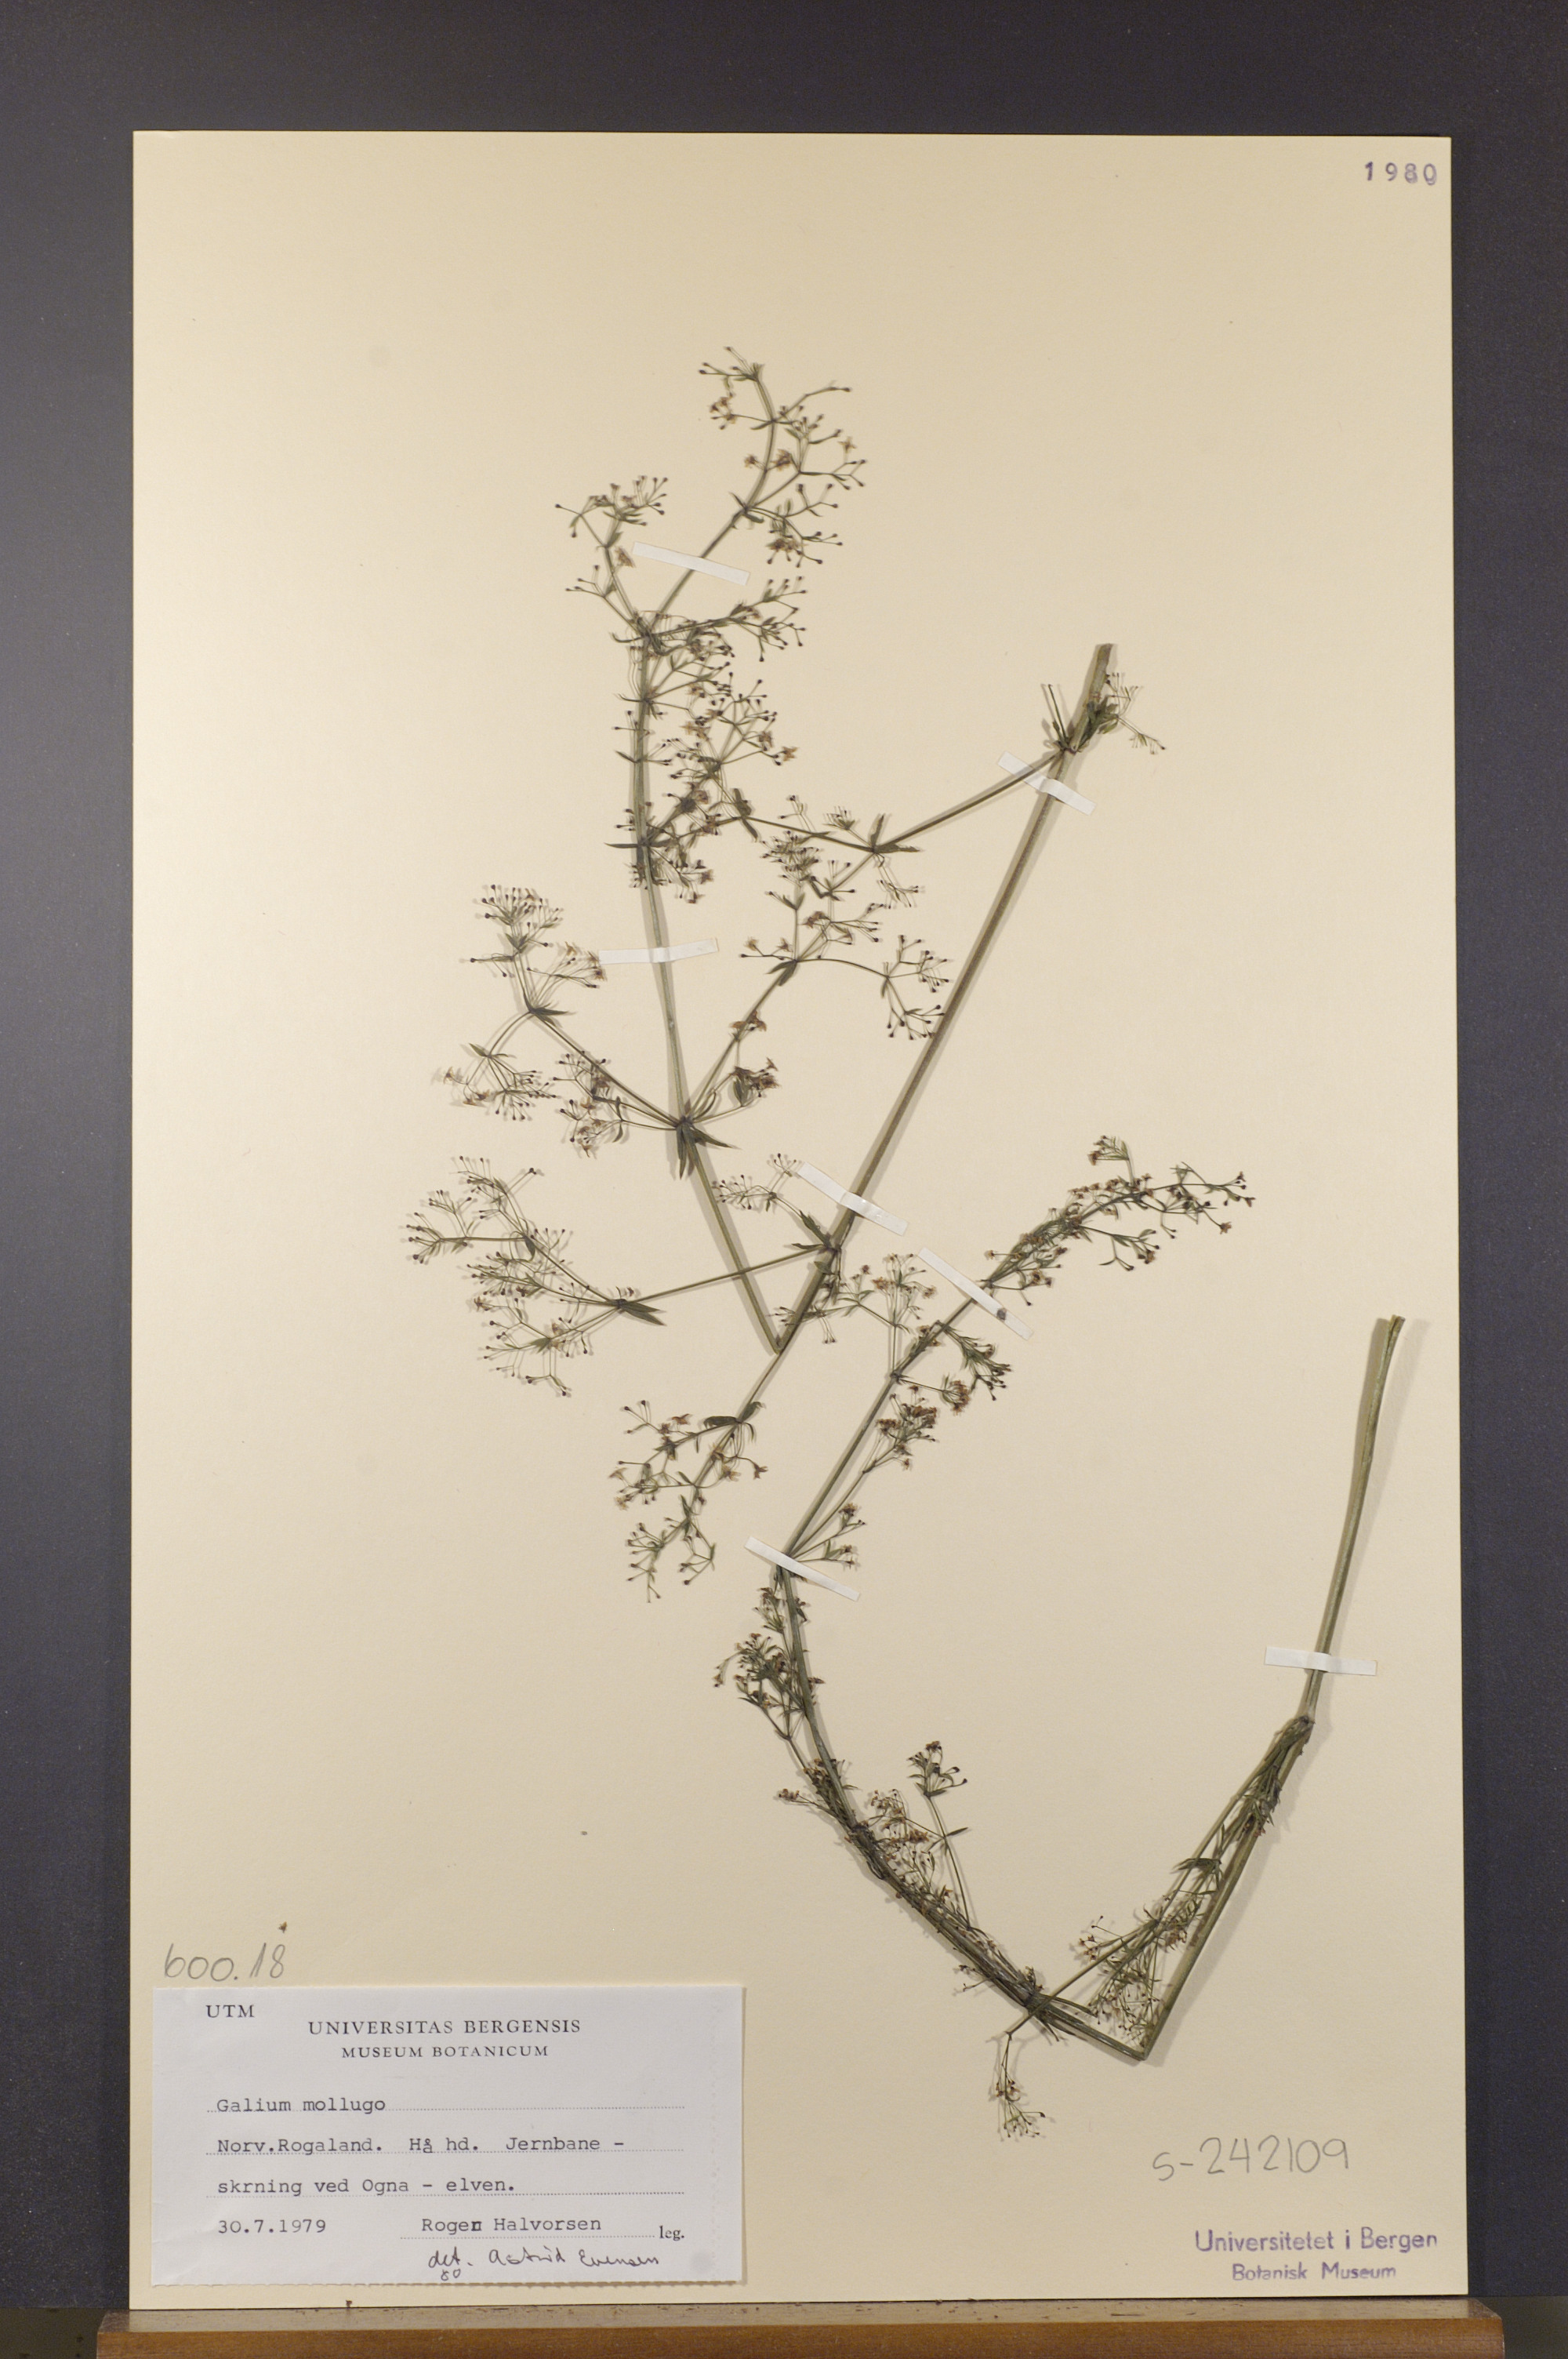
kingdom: Plantae
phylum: Tracheophyta
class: Magnoliopsida
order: Gentianales
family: Rubiaceae
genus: Galium
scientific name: Galium mollugo
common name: Hedge bedstraw
